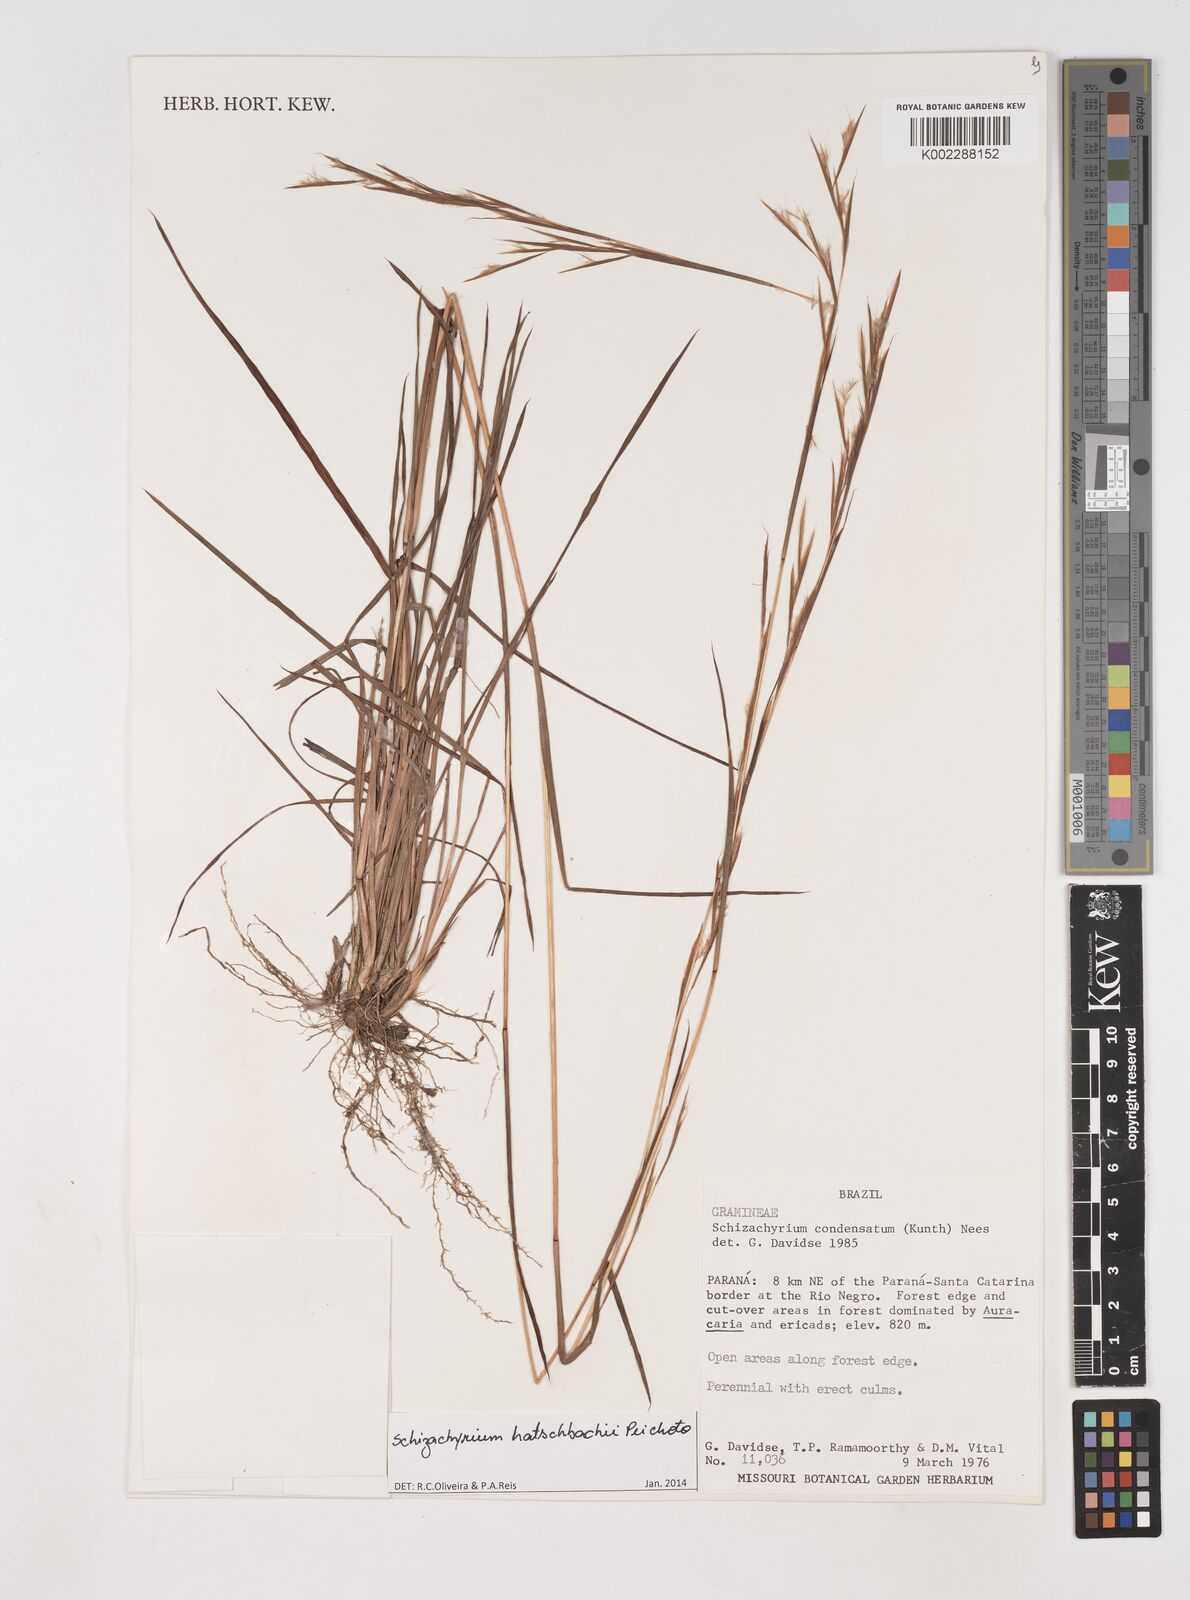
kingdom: Plantae
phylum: Tracheophyta
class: Liliopsida
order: Poales
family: Poaceae
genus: Schizachyrium
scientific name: Schizachyrium hatschbachii
